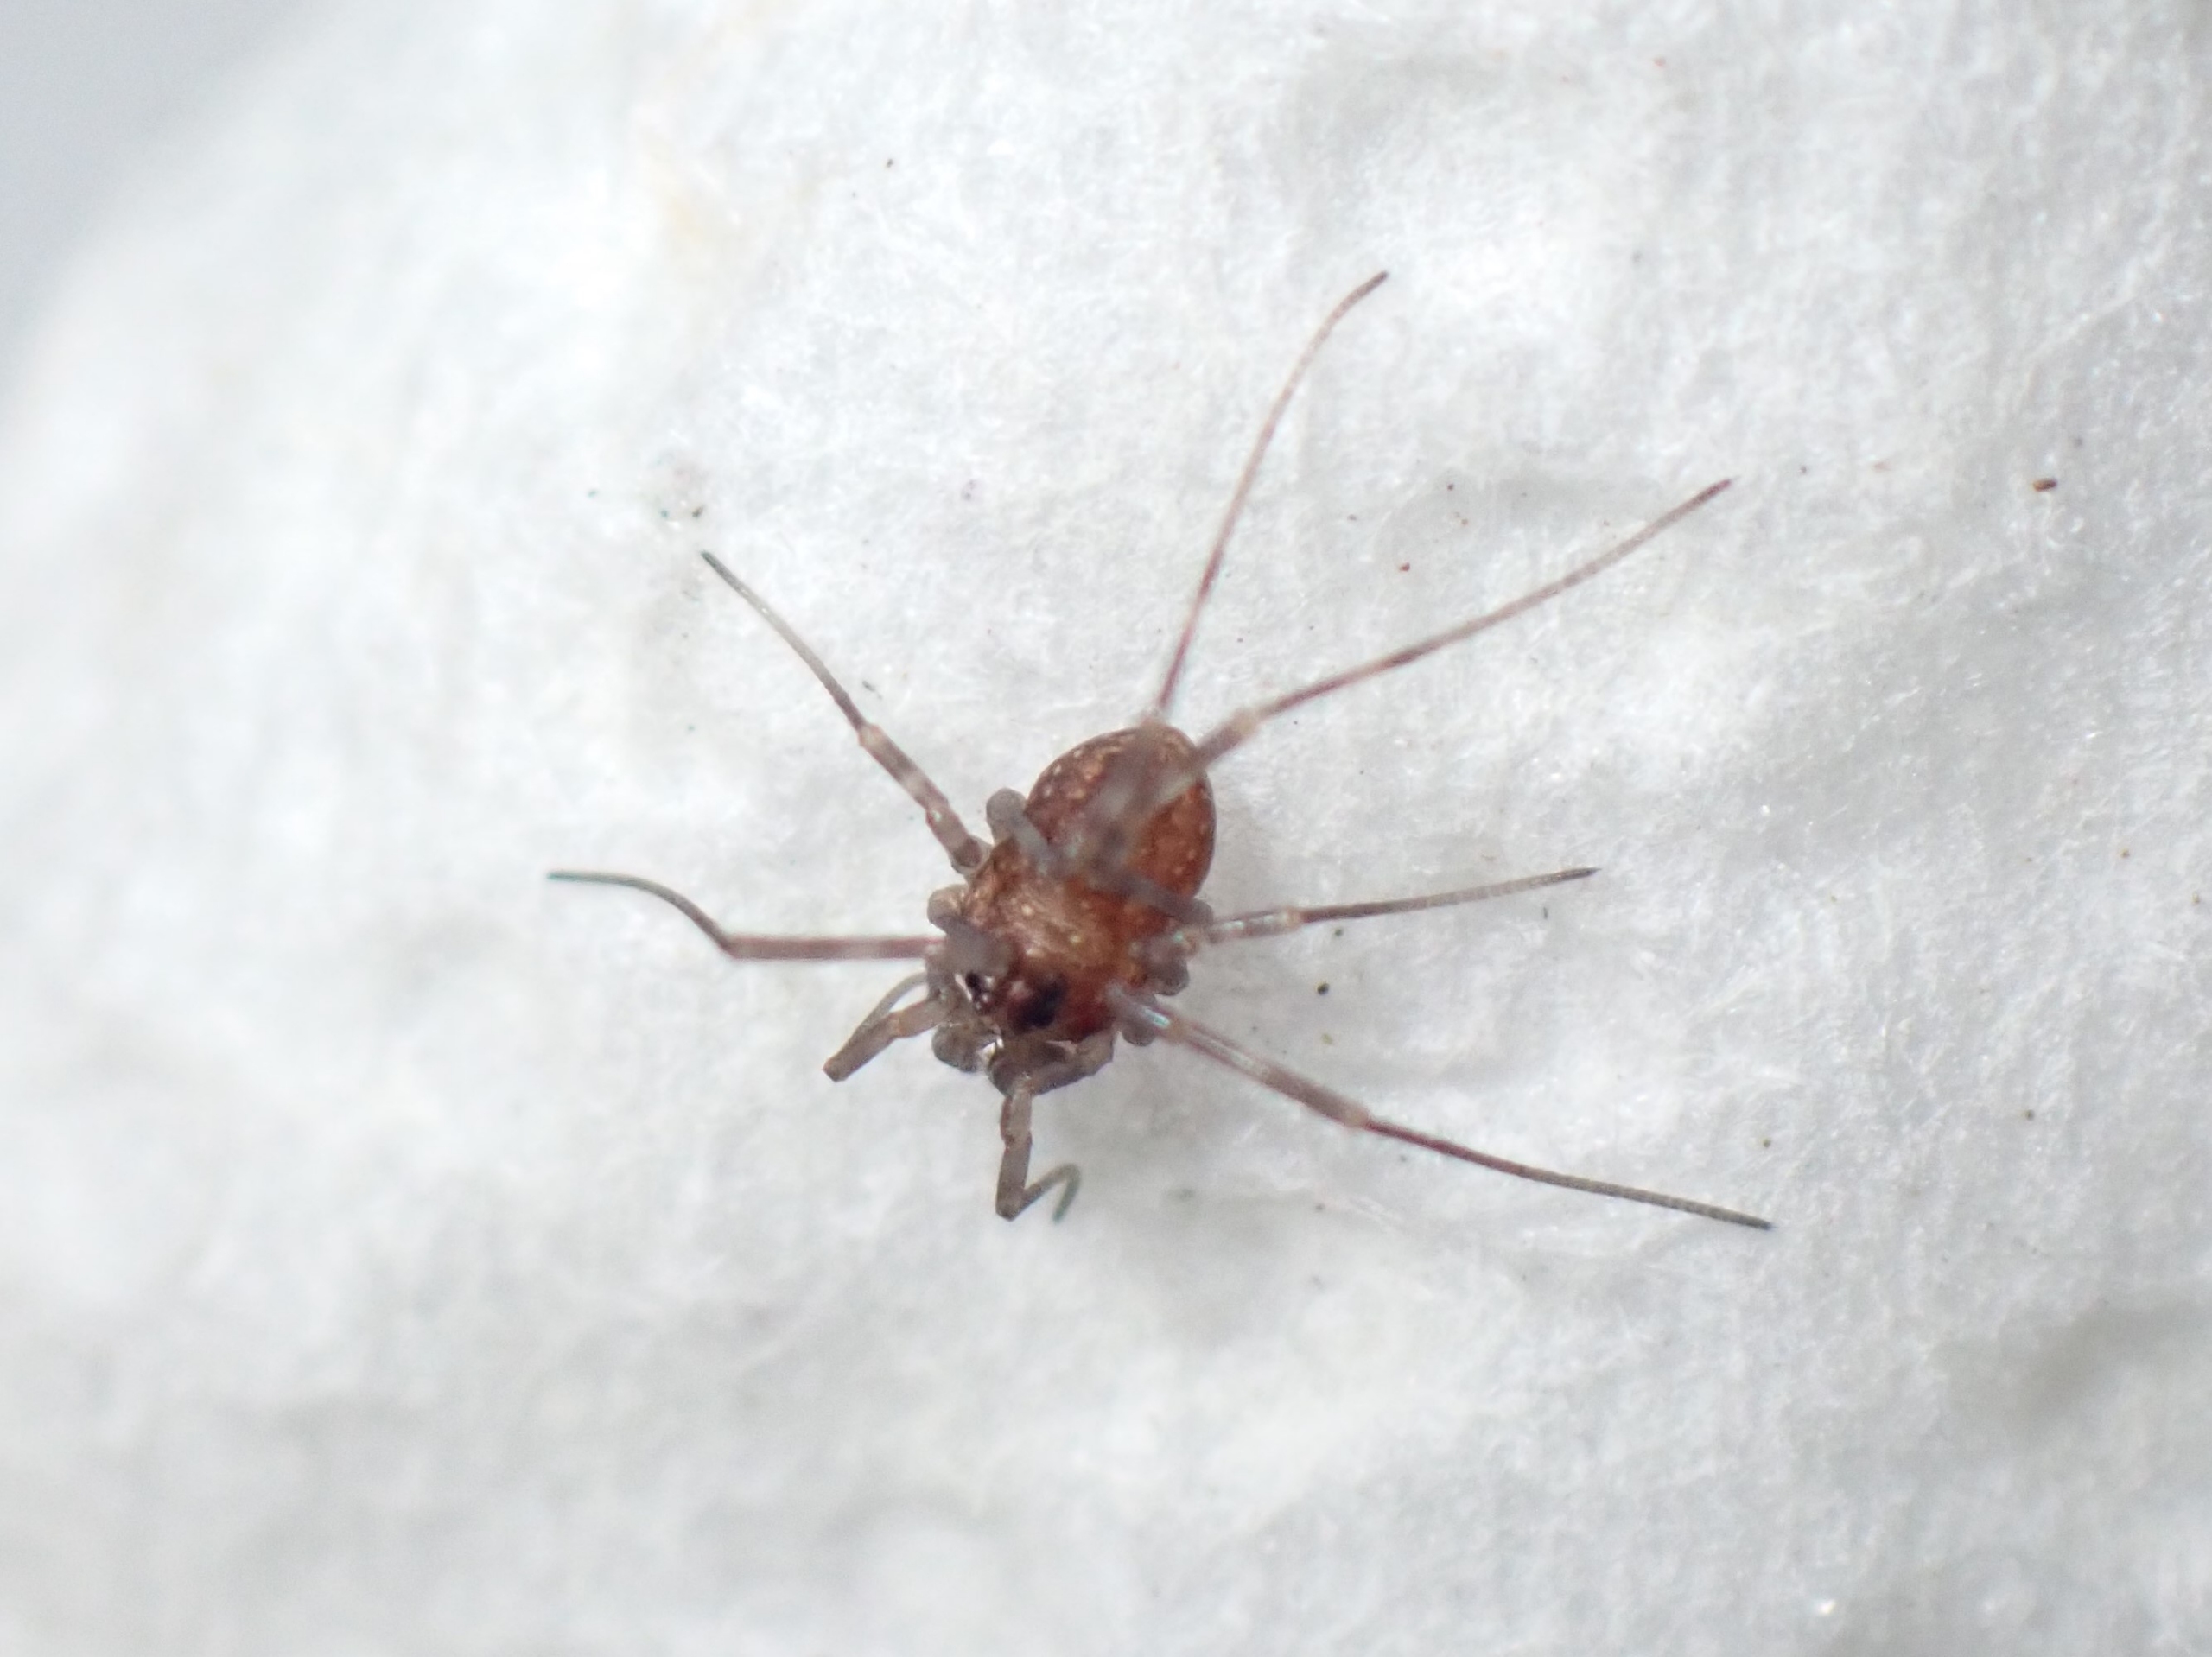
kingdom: Animalia
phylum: Arthropoda
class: Arachnida
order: Opiliones
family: Phalangiidae
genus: Rilaena
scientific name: Rilaena triangularis
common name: Forårsmejer
